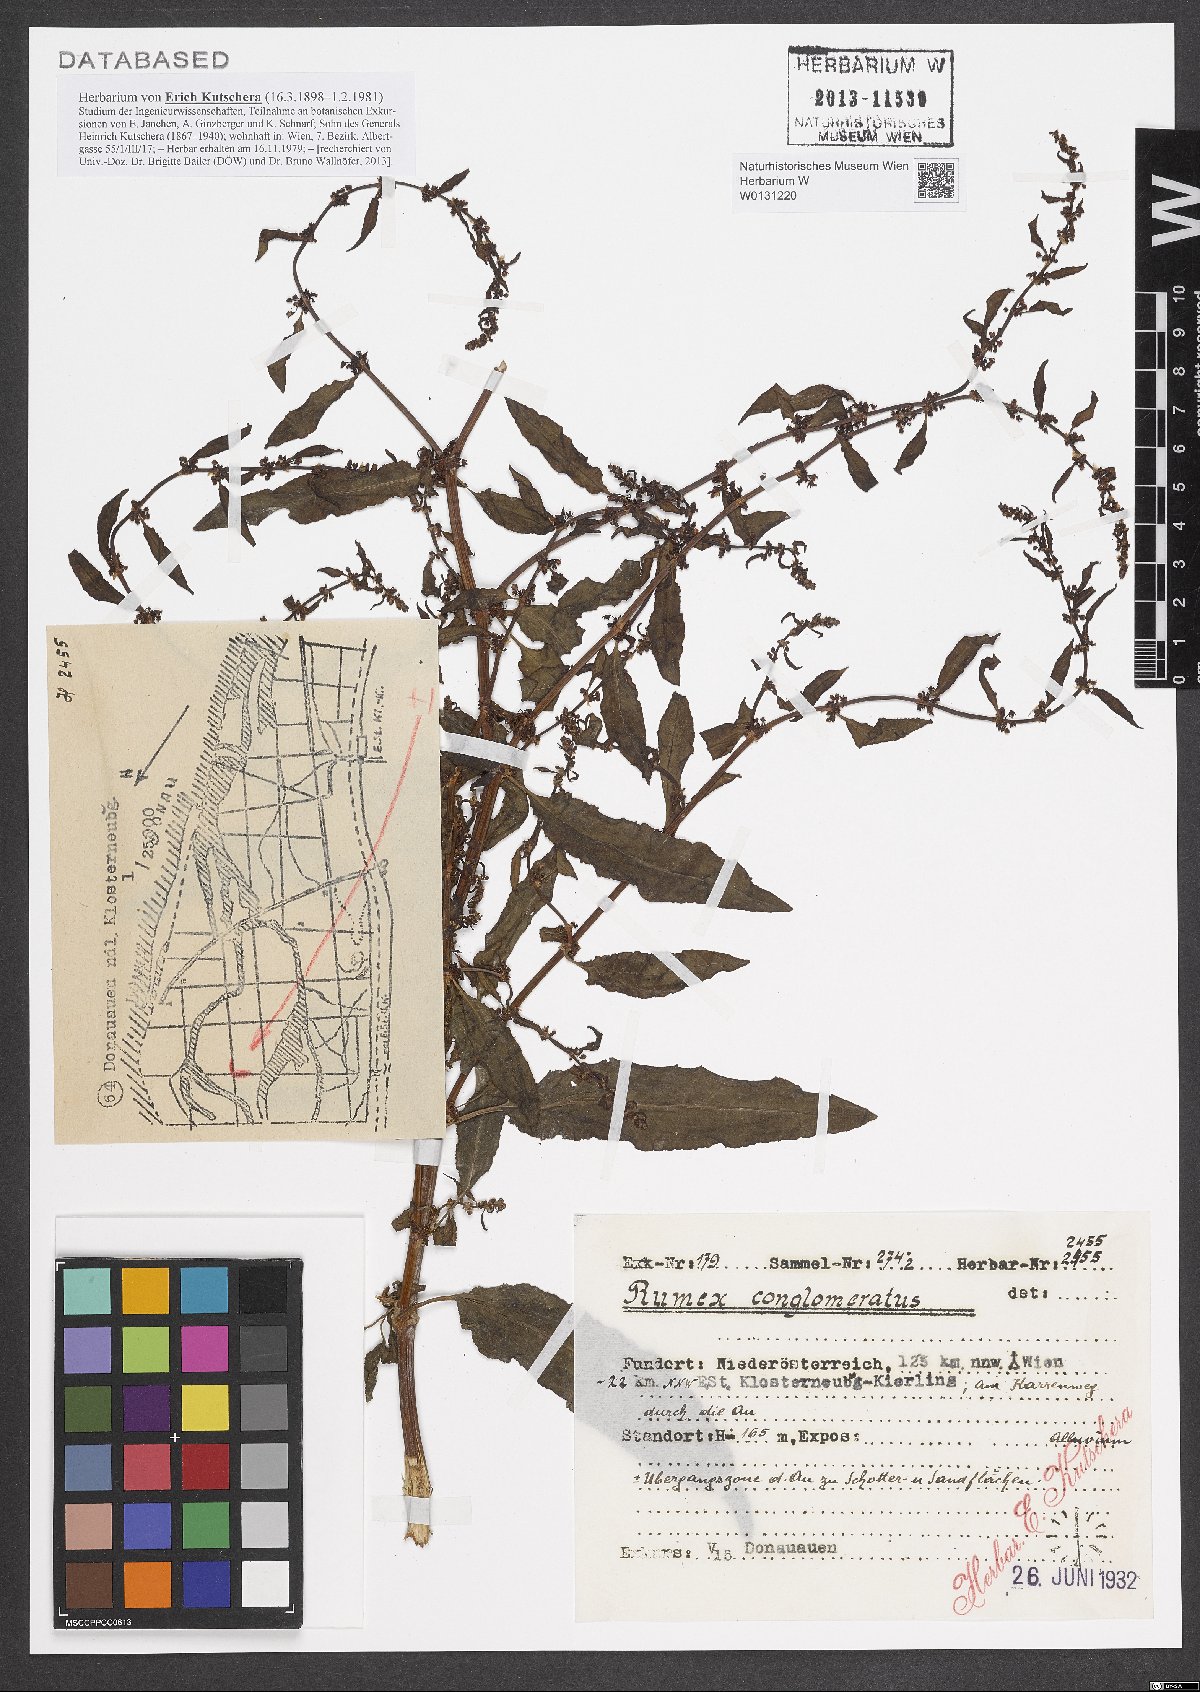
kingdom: Plantae
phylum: Tracheophyta
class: Magnoliopsida
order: Caryophyllales
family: Polygonaceae
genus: Rumex
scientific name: Rumex conglomeratus
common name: Clustered dock
